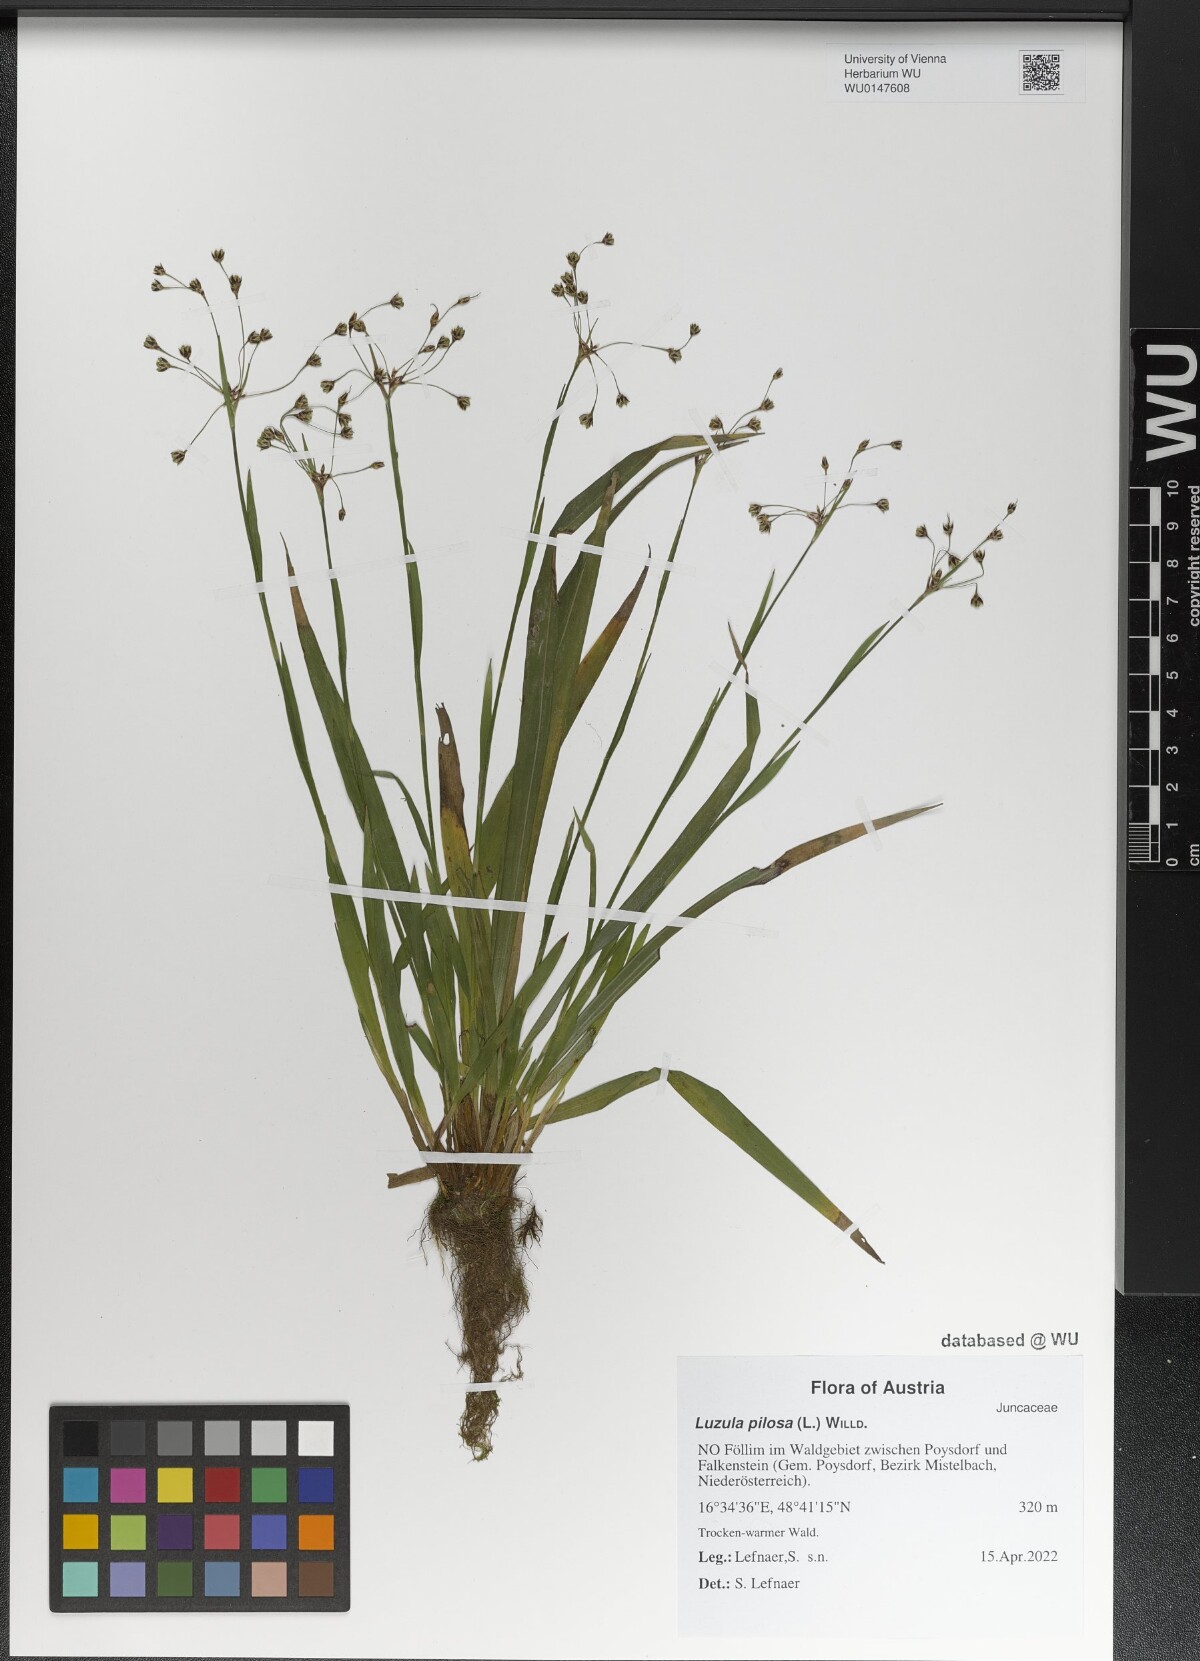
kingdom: Plantae
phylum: Tracheophyta
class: Liliopsida
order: Poales
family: Juncaceae
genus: Luzula
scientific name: Luzula pilosa
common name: Hairy wood-rush
